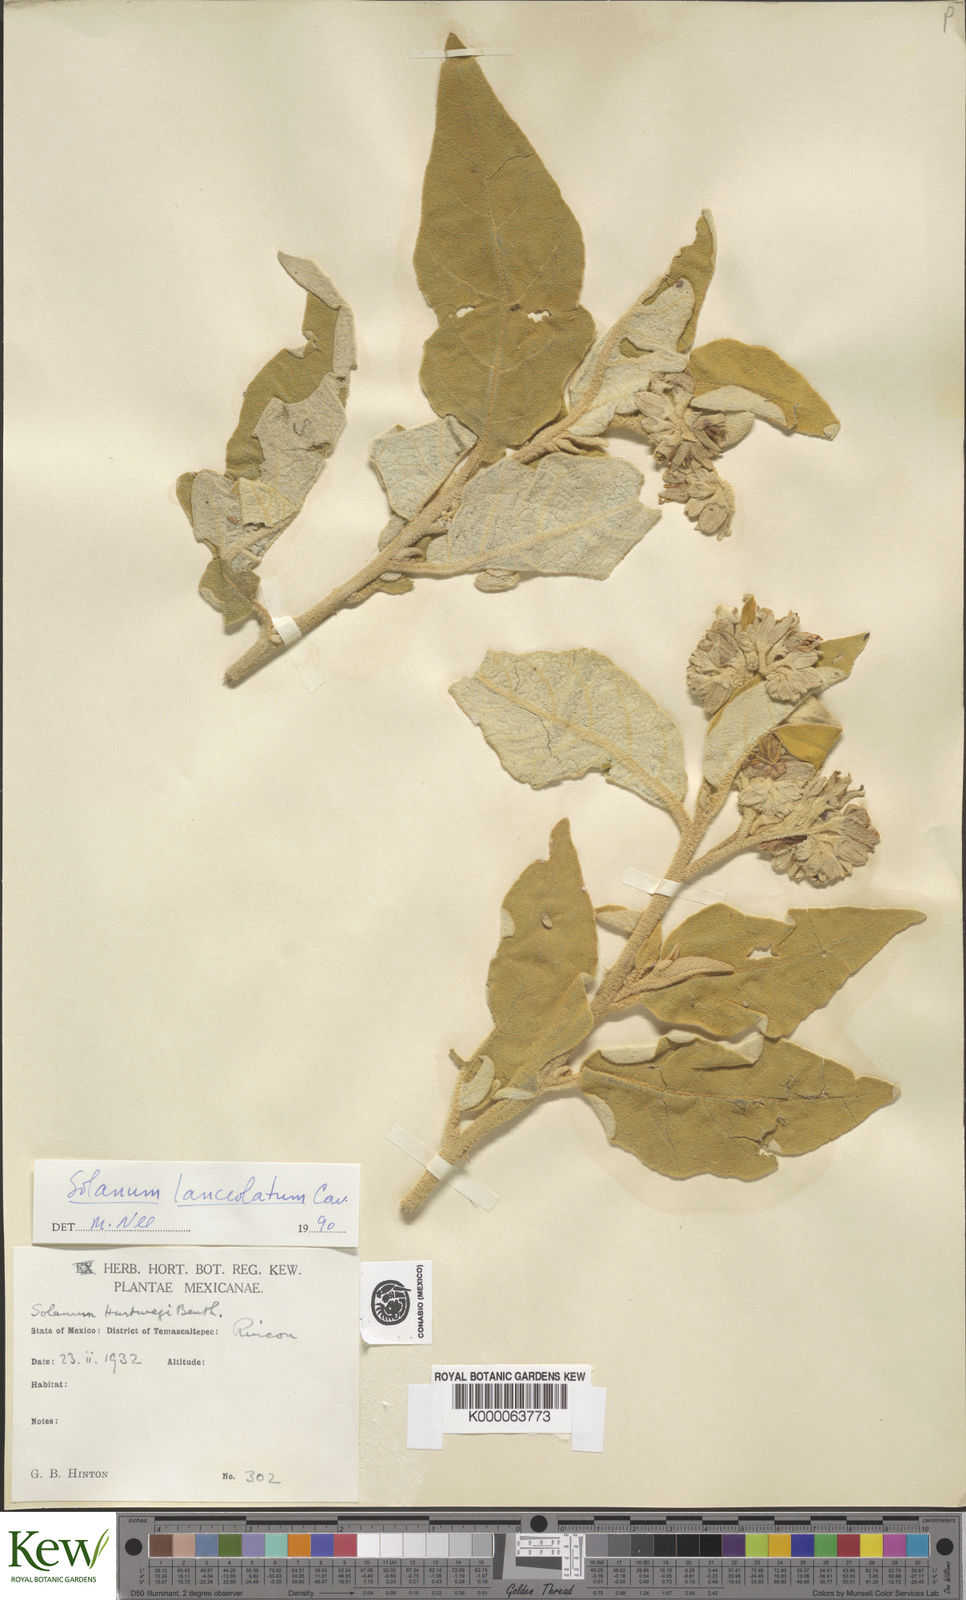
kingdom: Plantae
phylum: Tracheophyta
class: Magnoliopsida
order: Solanales
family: Solanaceae
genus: Solanum
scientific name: Solanum lanceolatum
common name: Orangeberry nightshade
